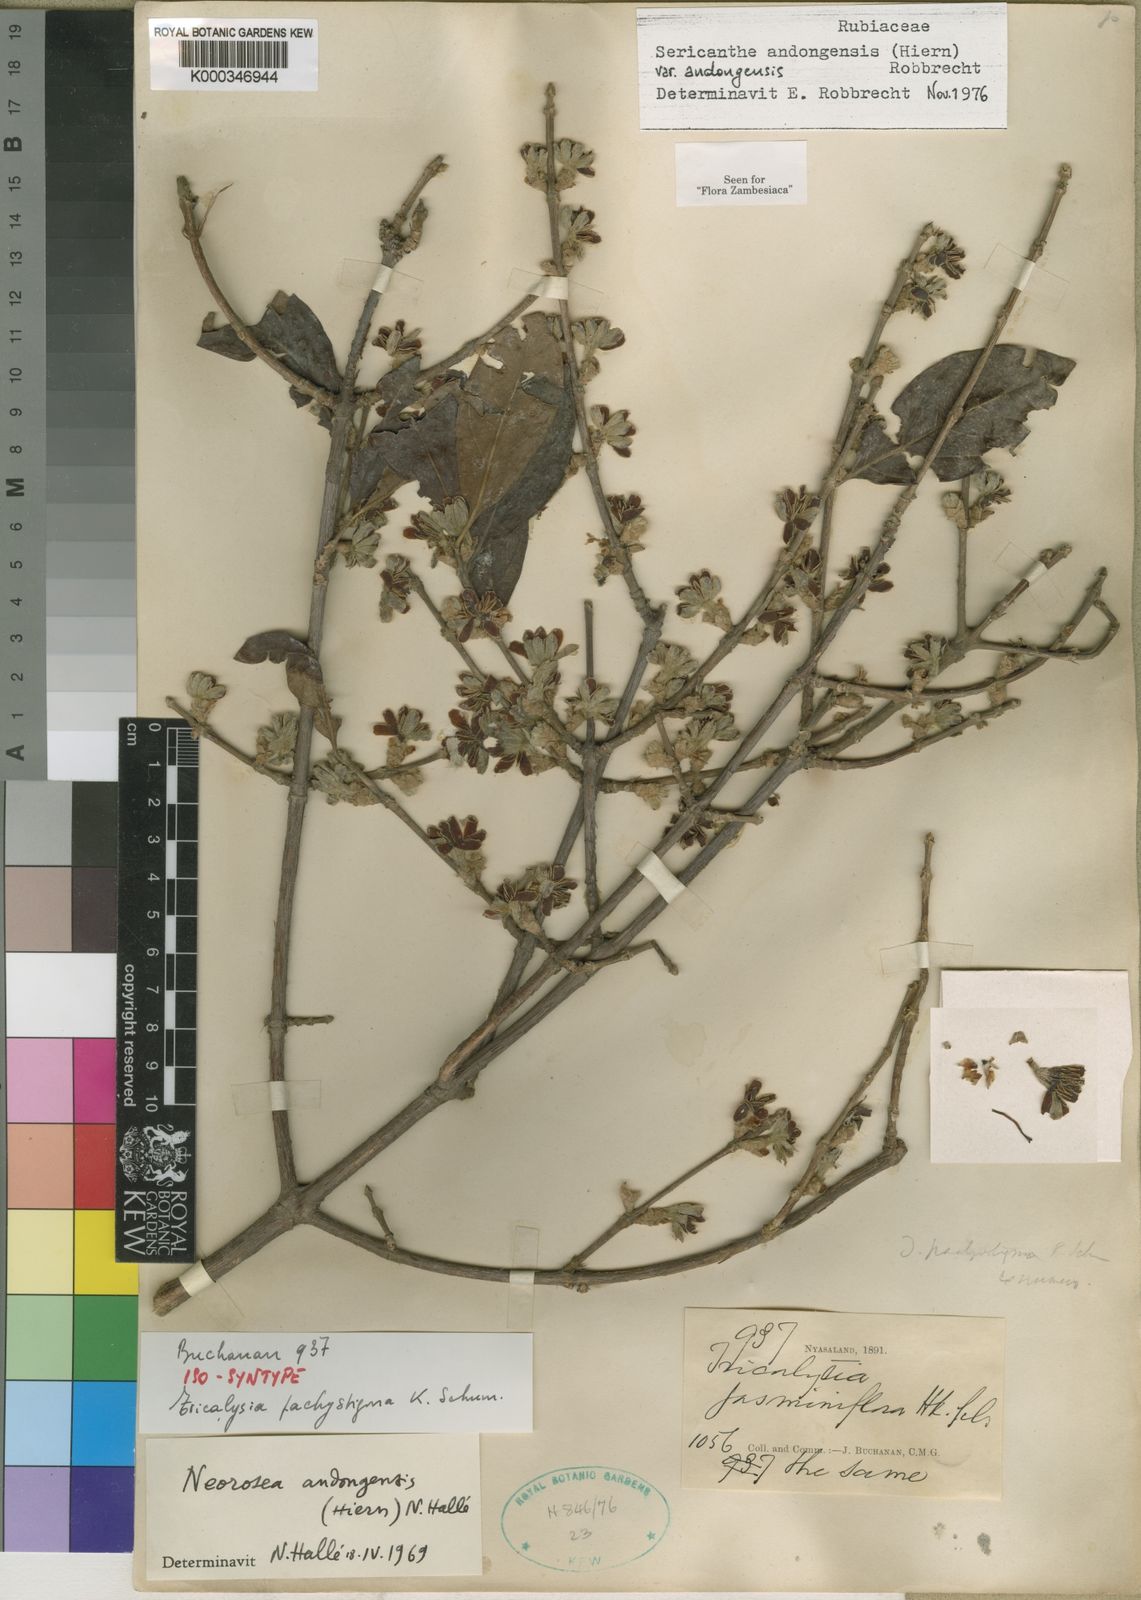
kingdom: Plantae
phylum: Tracheophyta
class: Magnoliopsida
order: Gentianales
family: Rubiaceae
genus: Sericanthe
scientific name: Sericanthe andongensis
